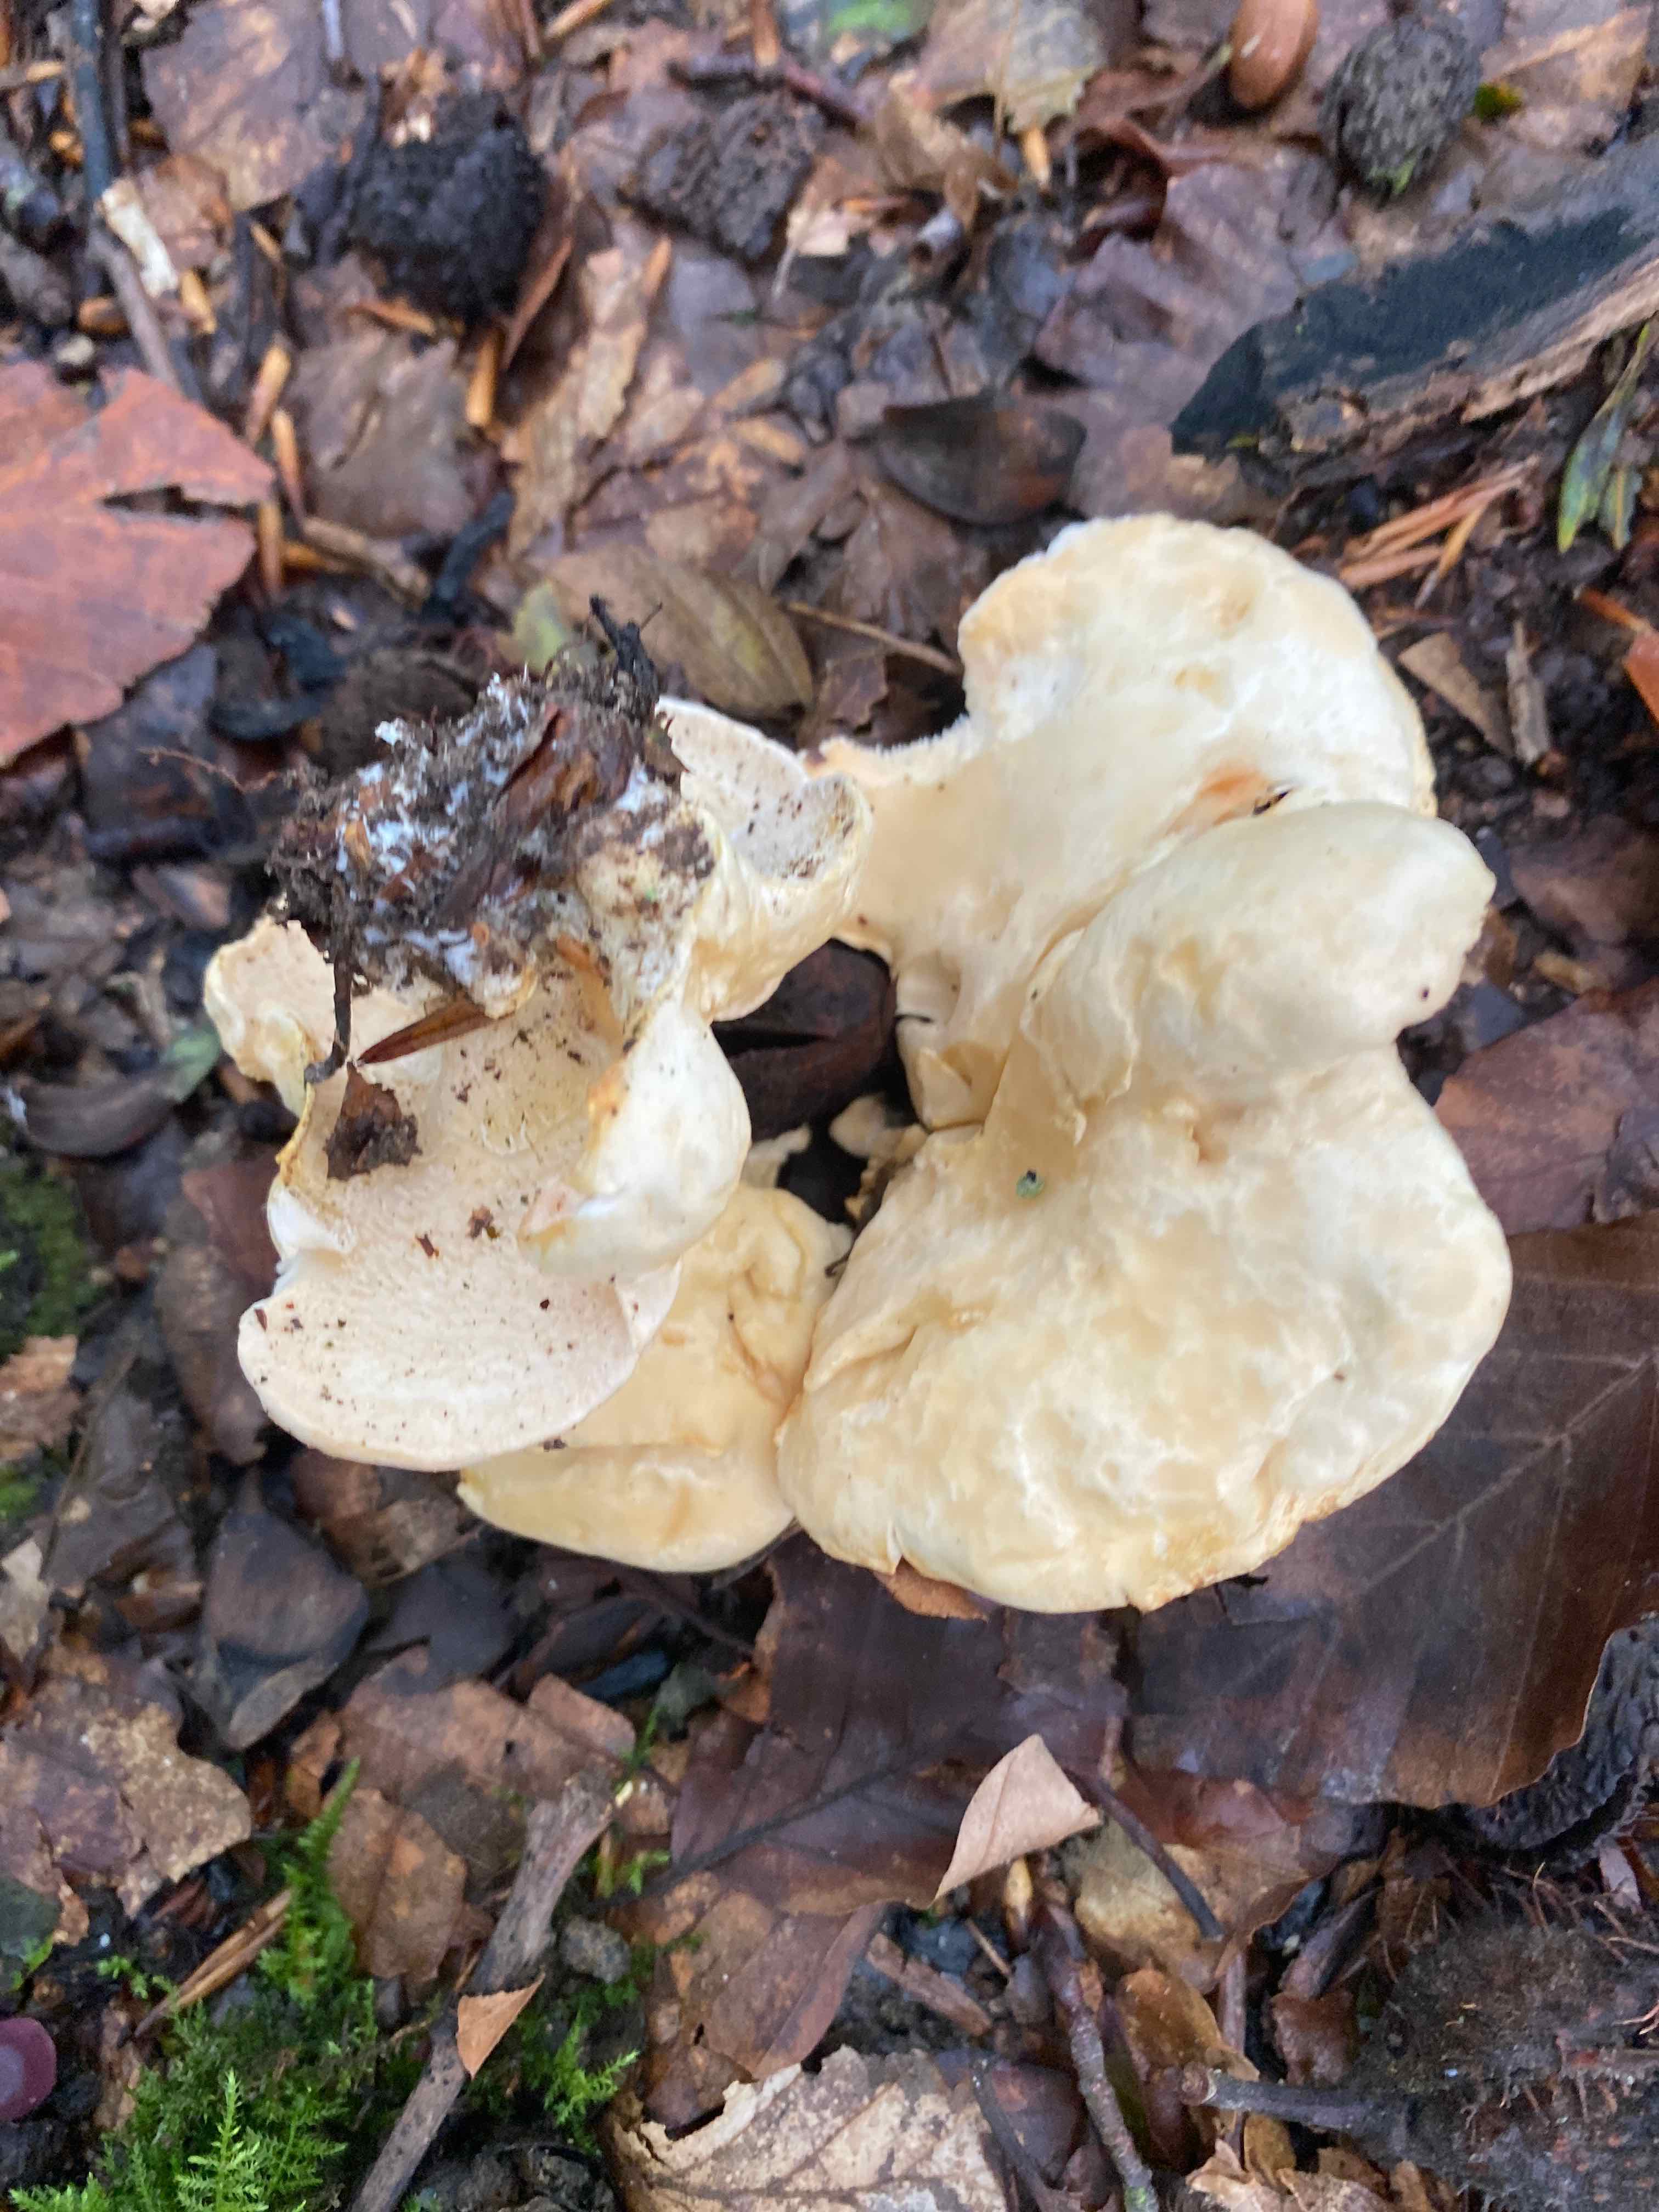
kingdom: Fungi
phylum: Basidiomycota
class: Agaricomycetes
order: Cantharellales
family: Hydnaceae
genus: Hydnum
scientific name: Hydnum repandum
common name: almindelig pigsvamp
